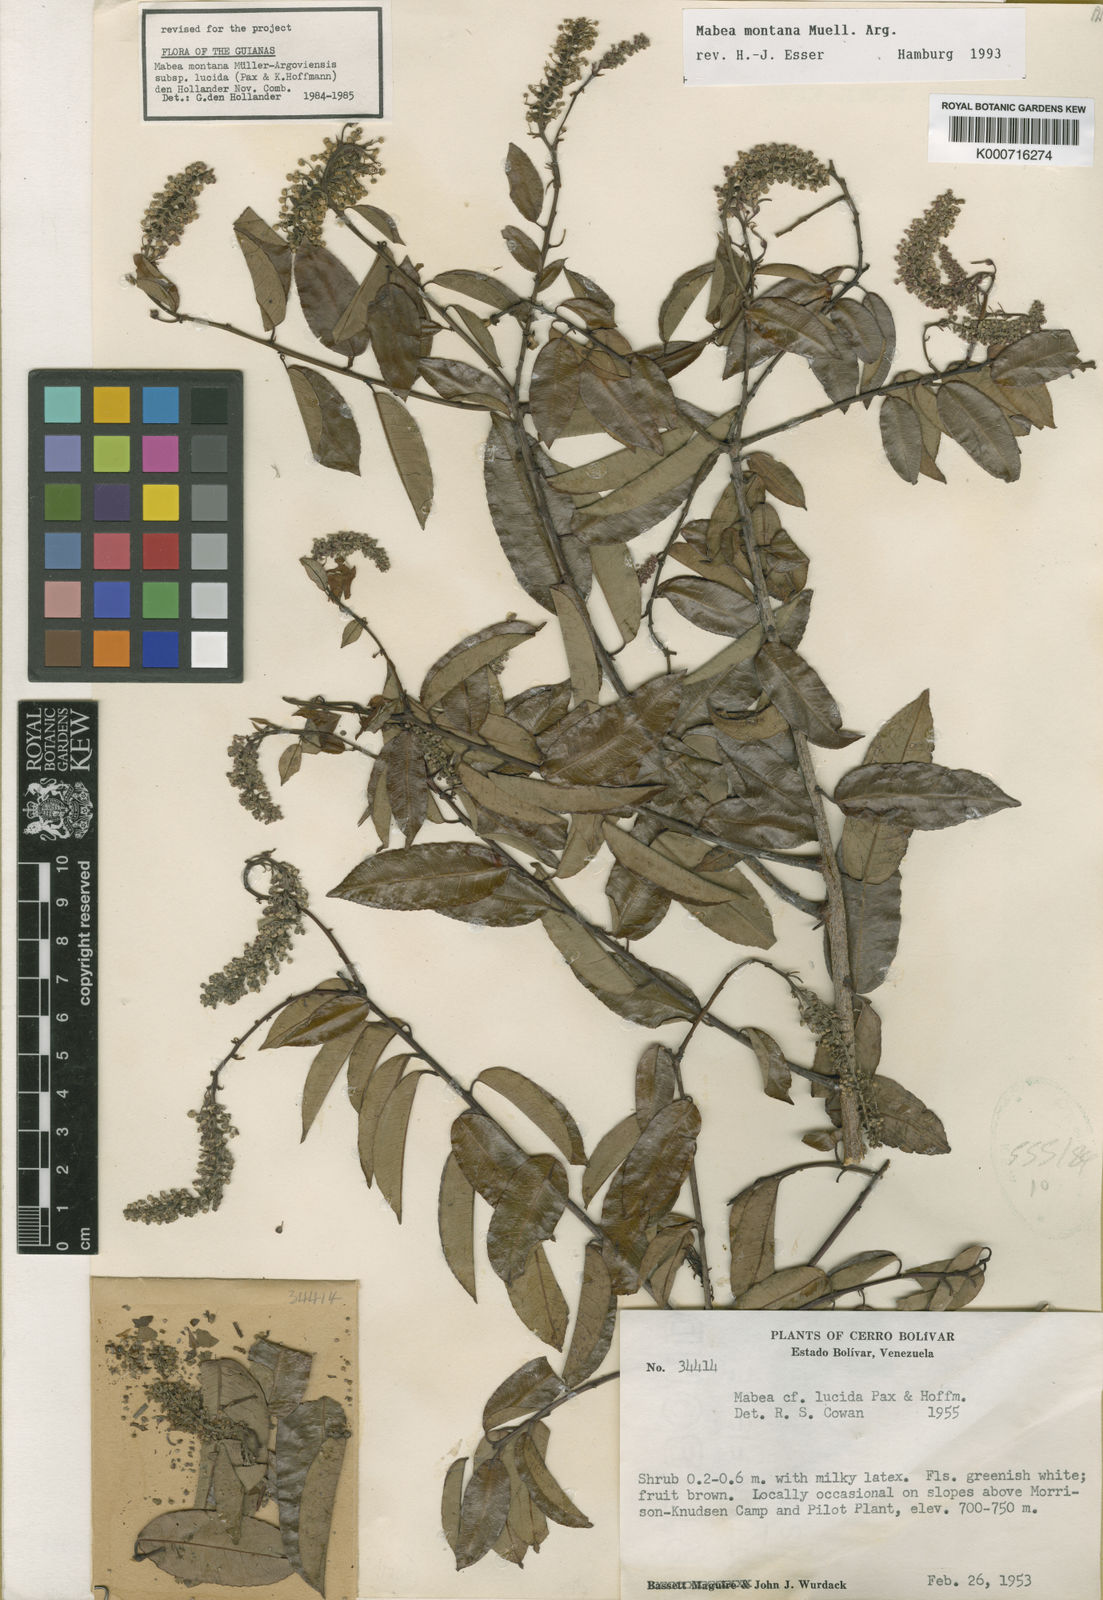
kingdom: Plantae
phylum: Tracheophyta
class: Magnoliopsida
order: Malpighiales
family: Euphorbiaceae
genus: Mabea
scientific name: Mabea
